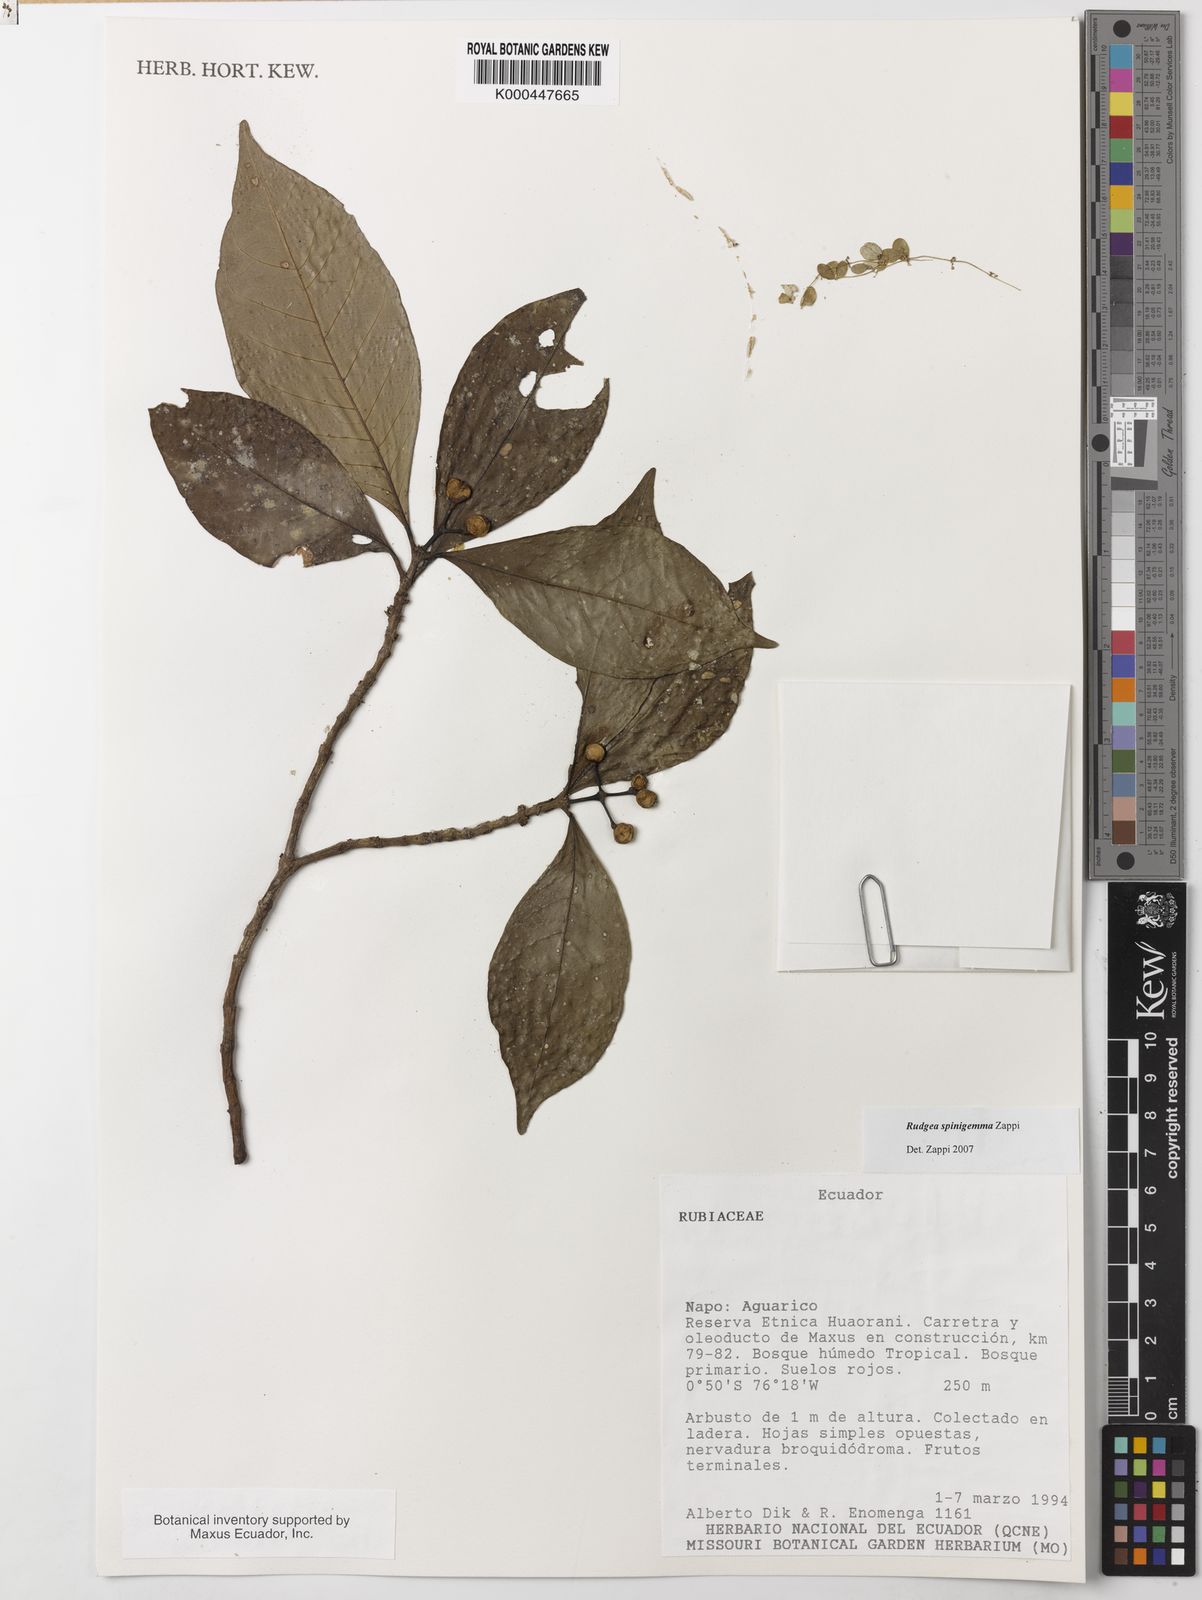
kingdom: Plantae
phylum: Tracheophyta
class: Magnoliopsida
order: Gentianales
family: Rubiaceae
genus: Rudgea
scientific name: Rudgea spinigemma
